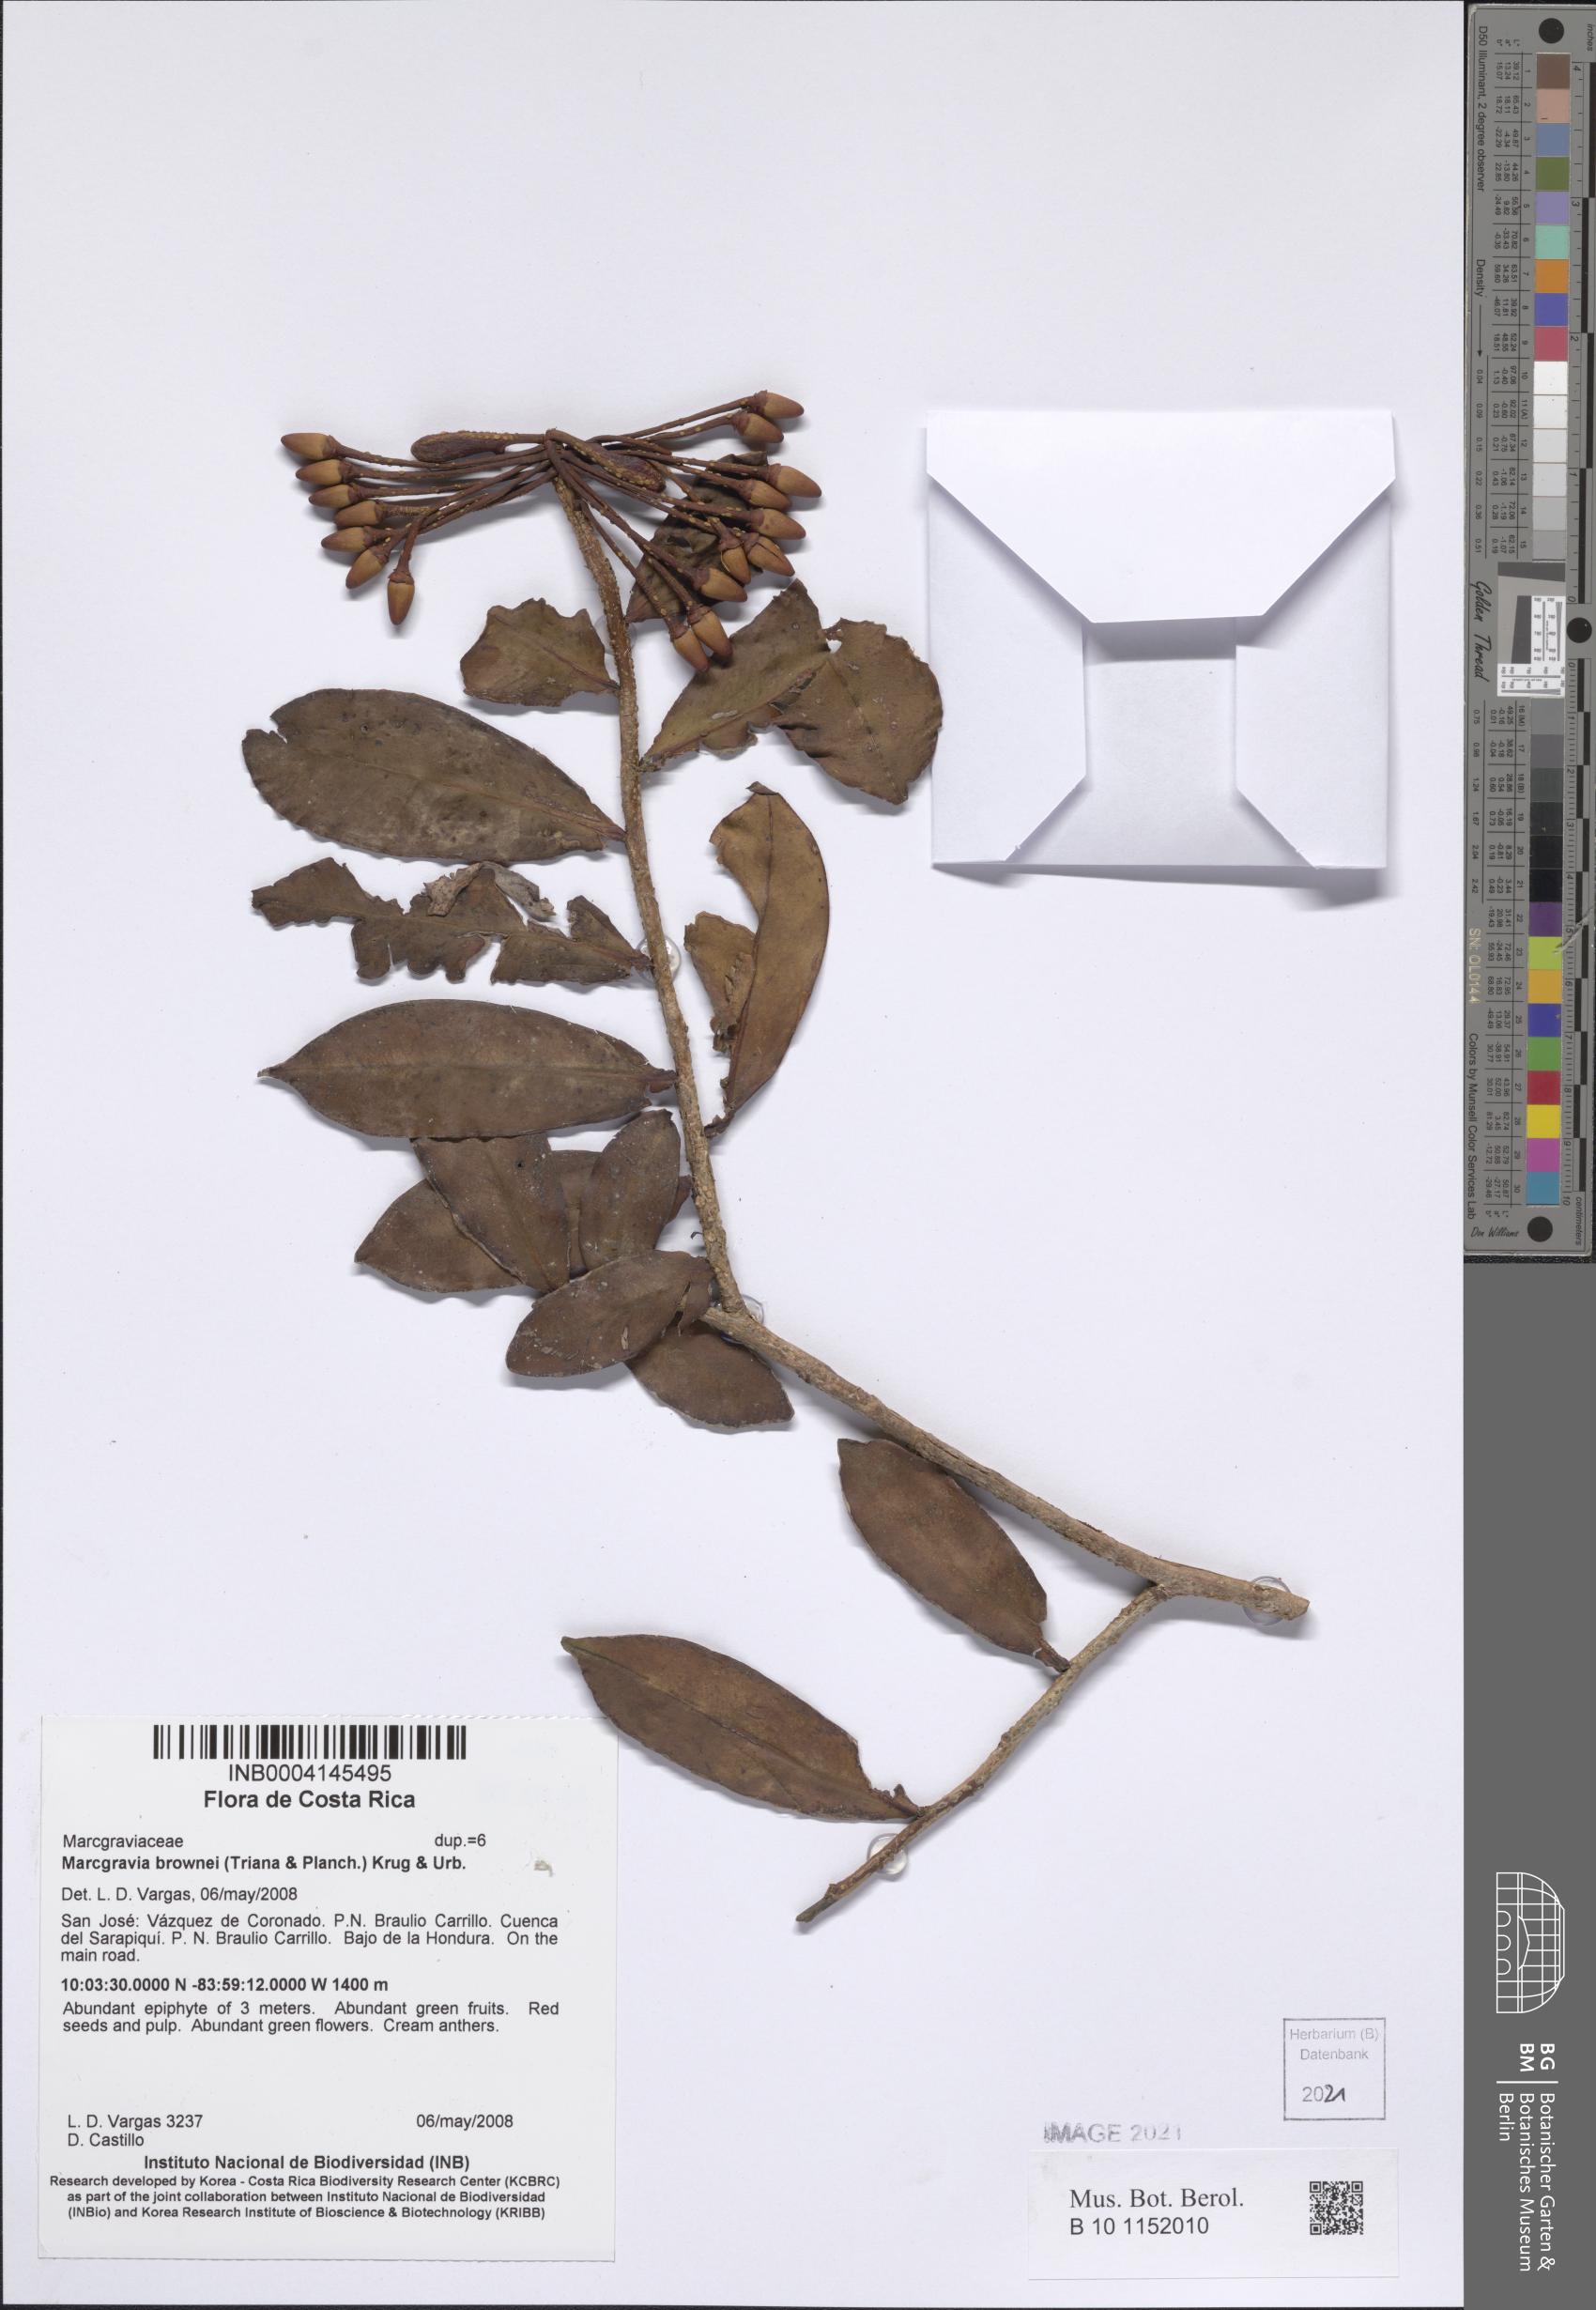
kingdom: Plantae
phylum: Tracheophyta
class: Magnoliopsida
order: Ericales
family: Marcgraviaceae
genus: Marcgravia
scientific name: Marcgravia brownei
